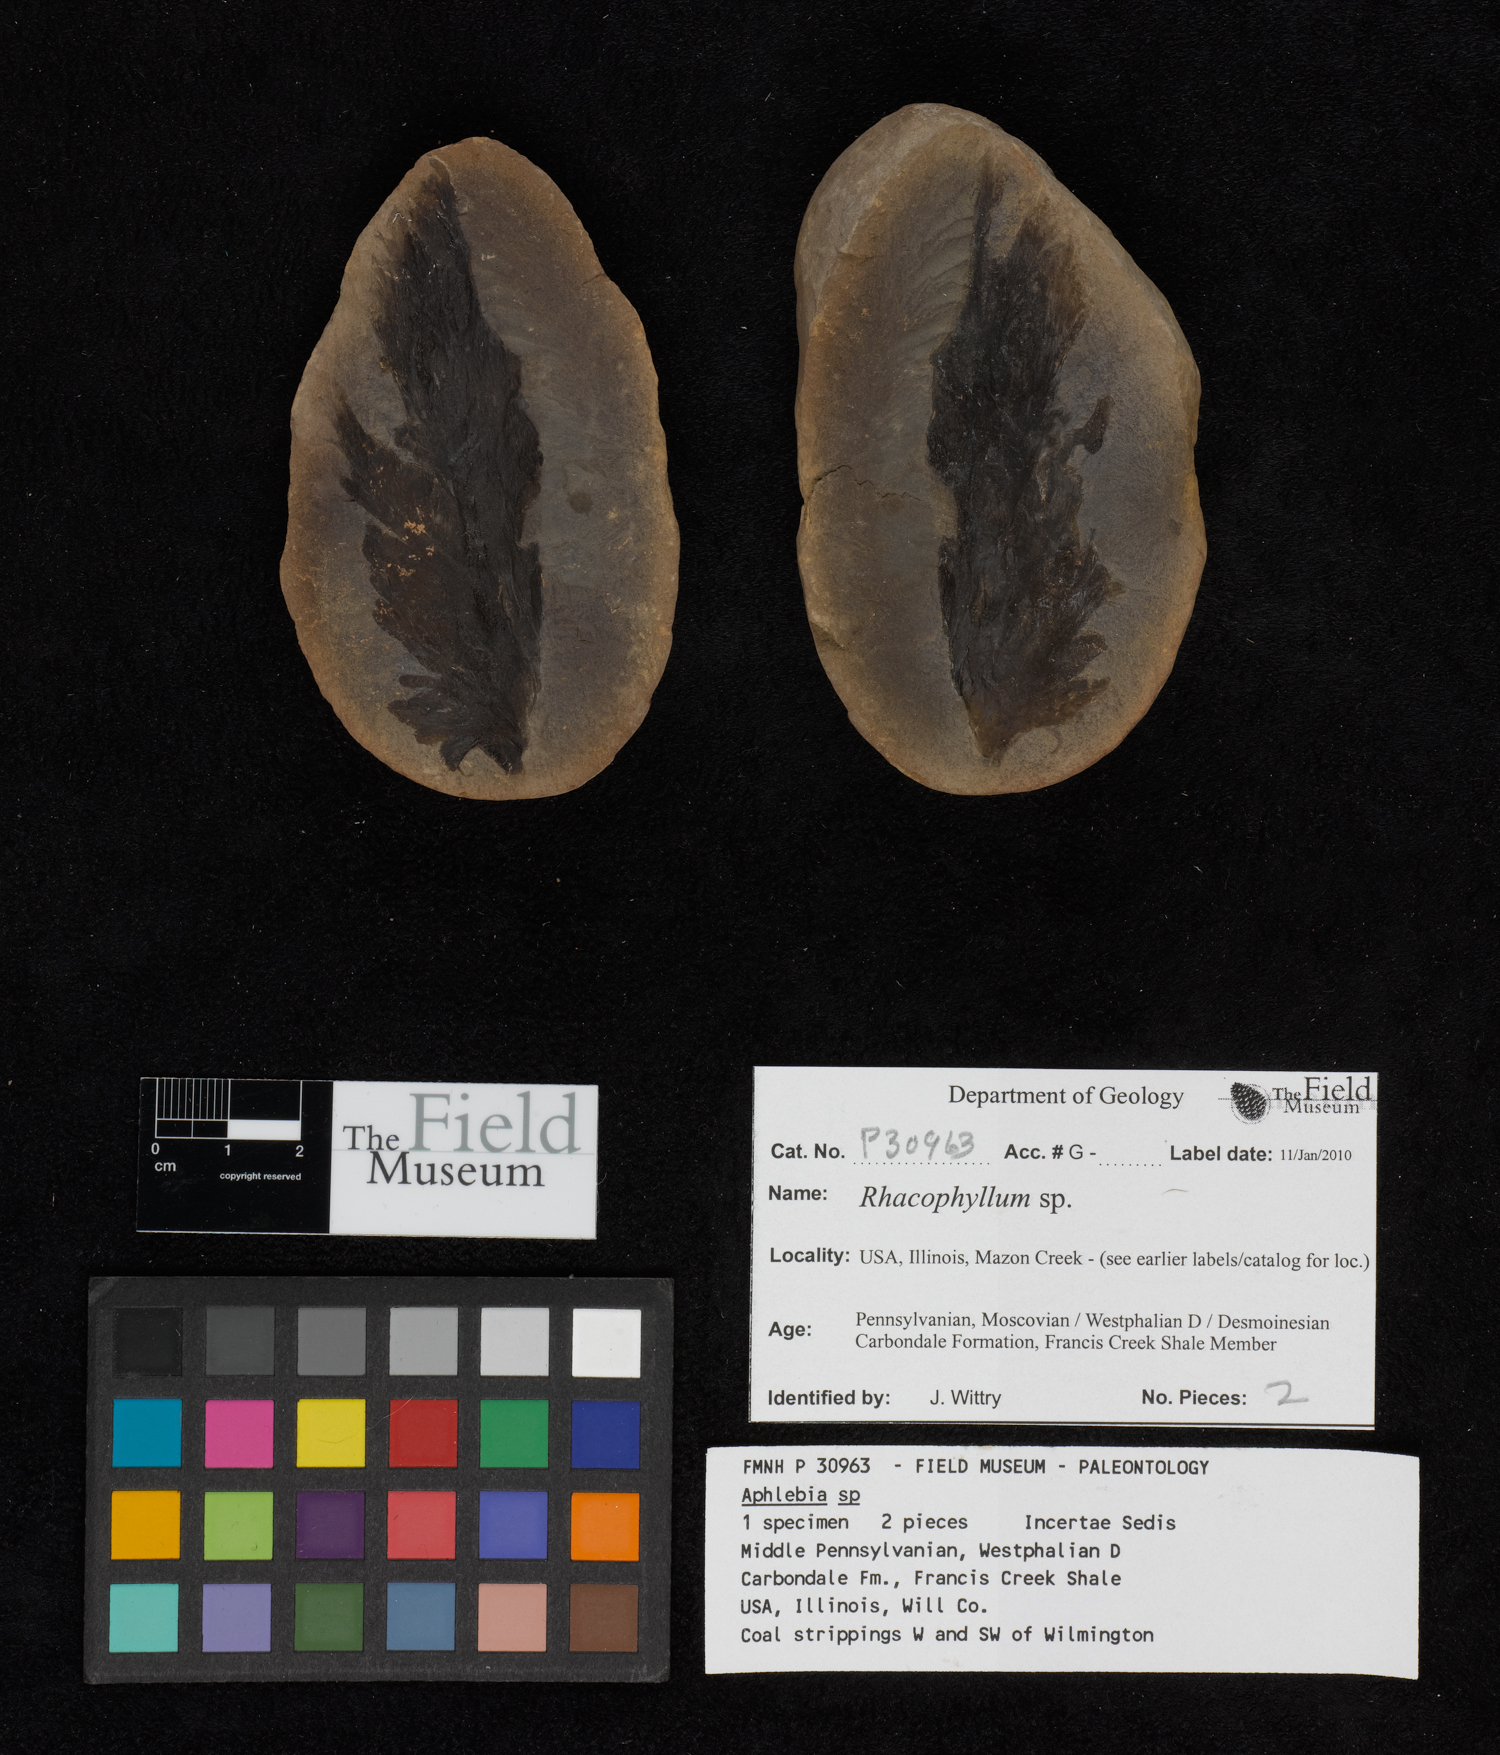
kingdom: Plantae
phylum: Tracheophyta
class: Polypodiopsida
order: Marattiales
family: Asterothecaceae
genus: Pecopteris
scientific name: Pecopteris
